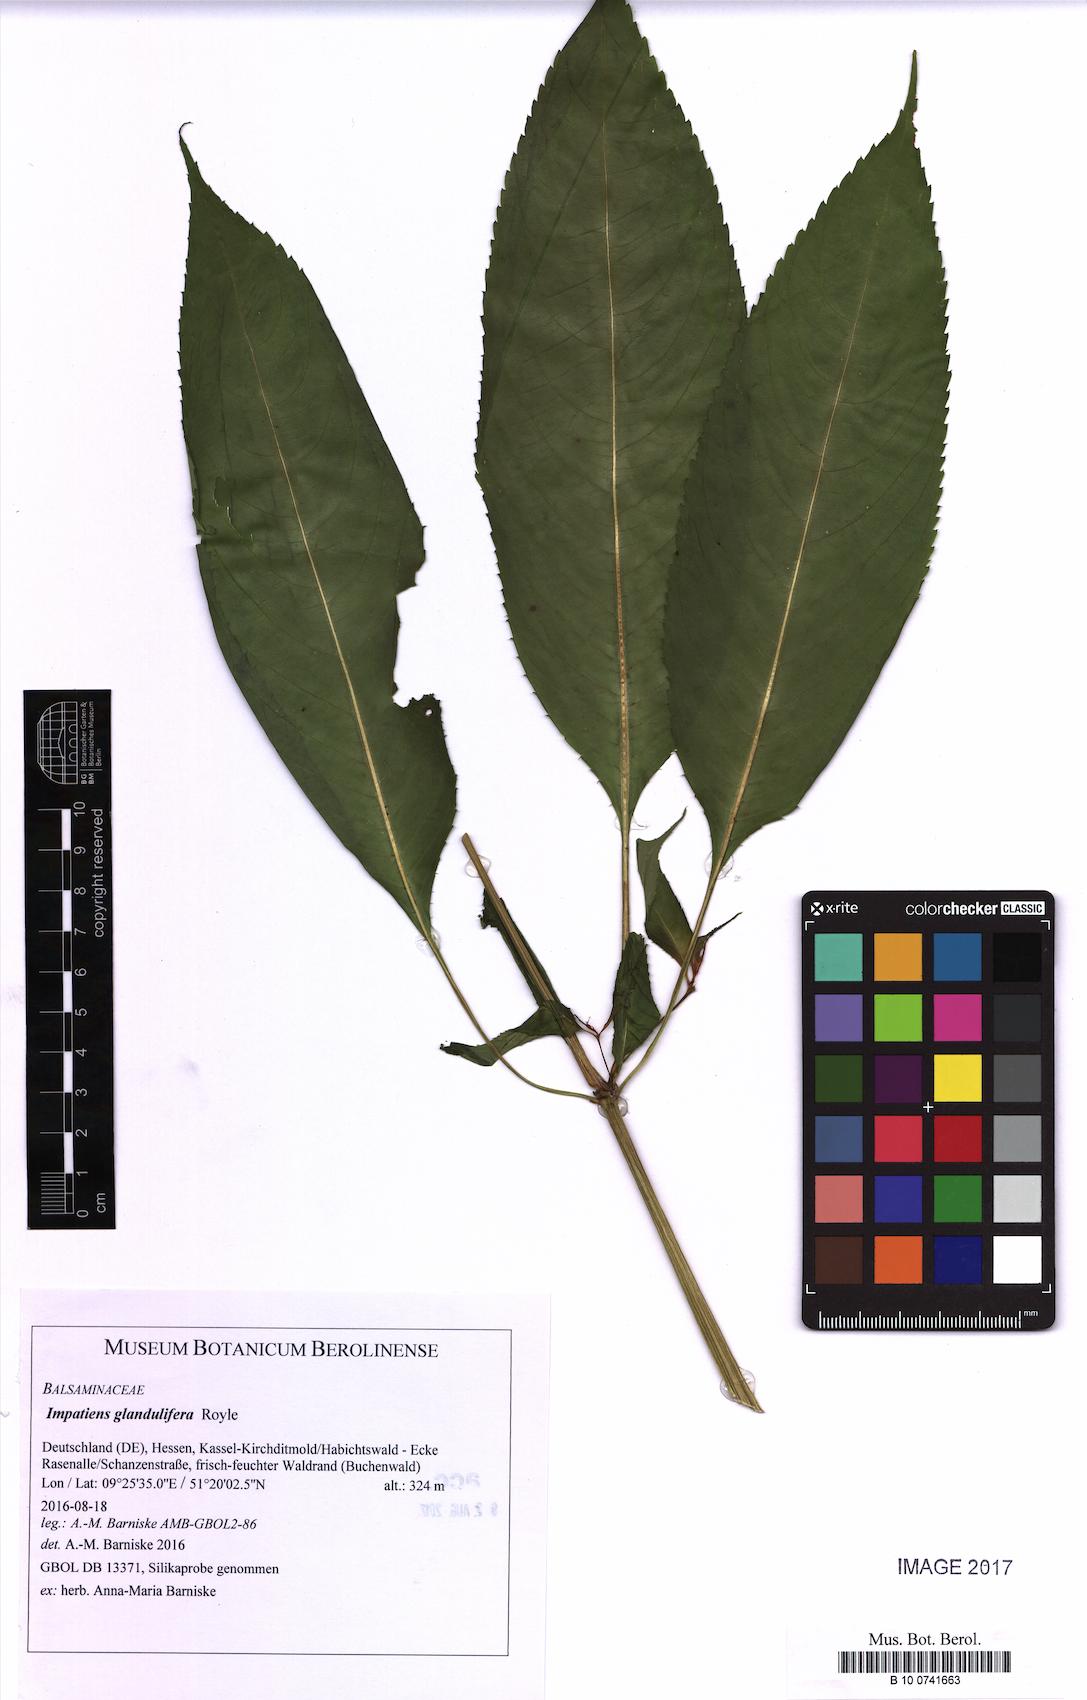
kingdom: Plantae
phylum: Tracheophyta
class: Magnoliopsida
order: Ericales
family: Balsaminaceae
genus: Impatiens
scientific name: Impatiens glandulifera
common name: Himalayan balsam
